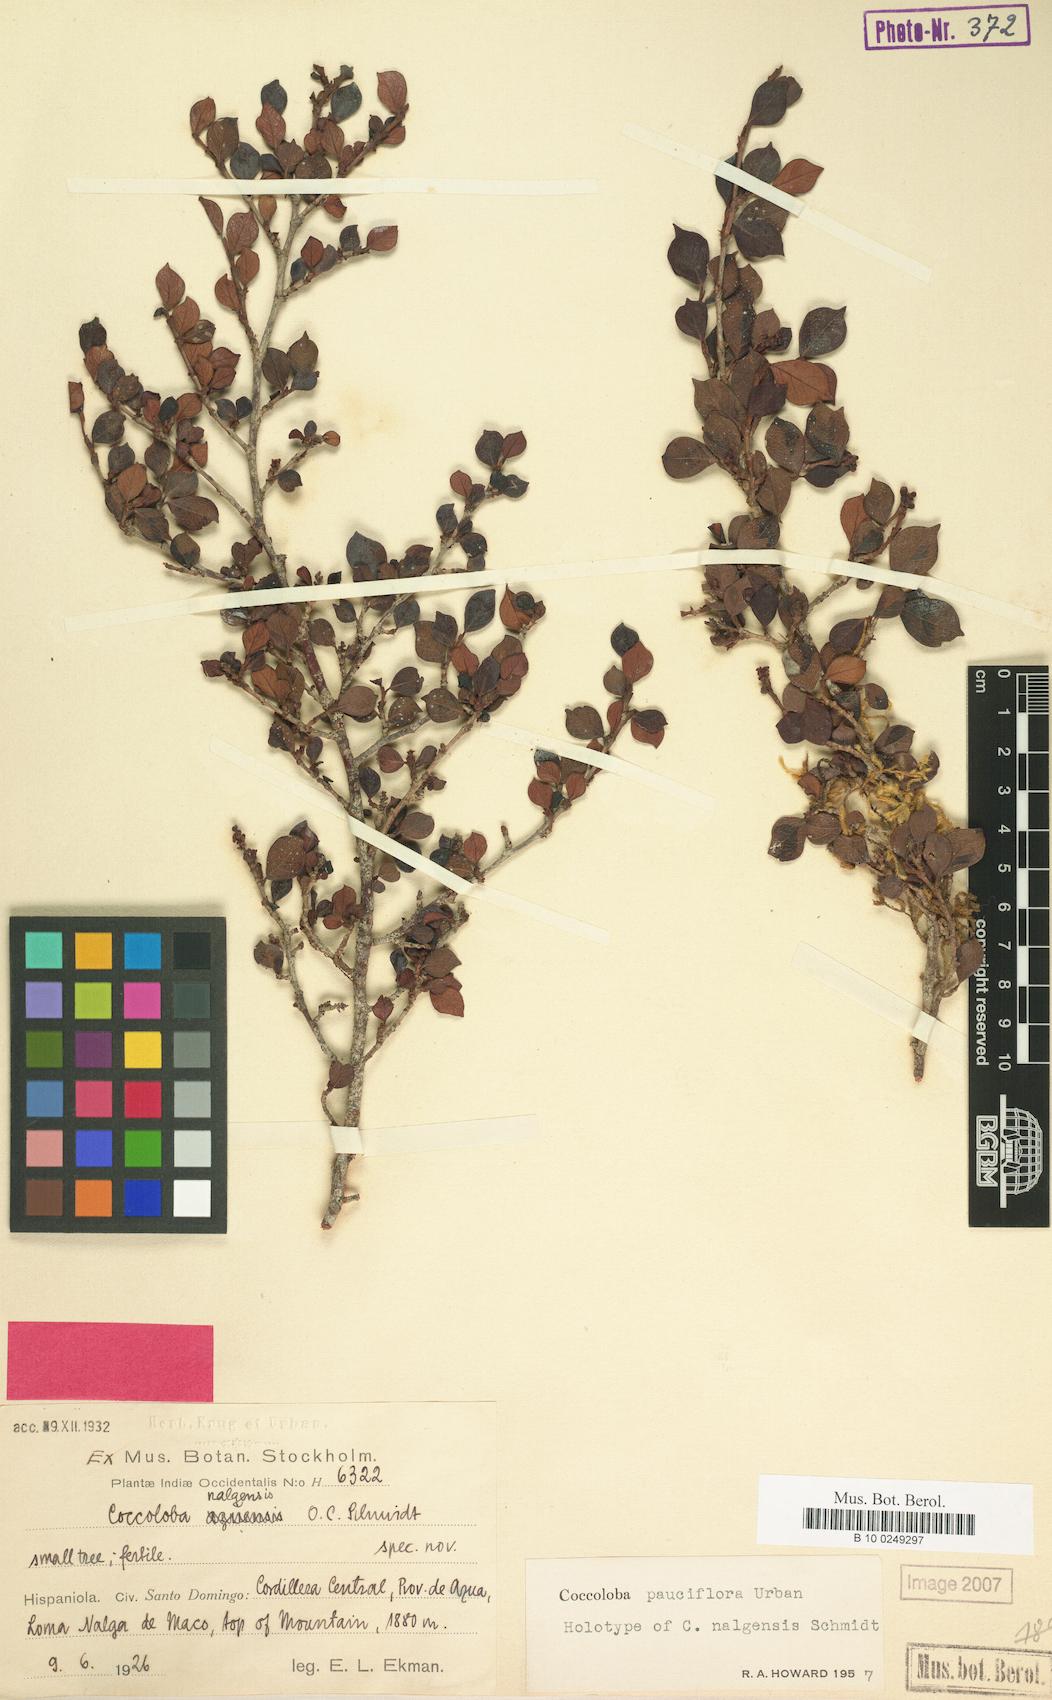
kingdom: Plantae
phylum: Tracheophyta
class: Magnoliopsida
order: Caryophyllales
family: Polygonaceae
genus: Coccoloba
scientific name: Coccoloba pauciflora
